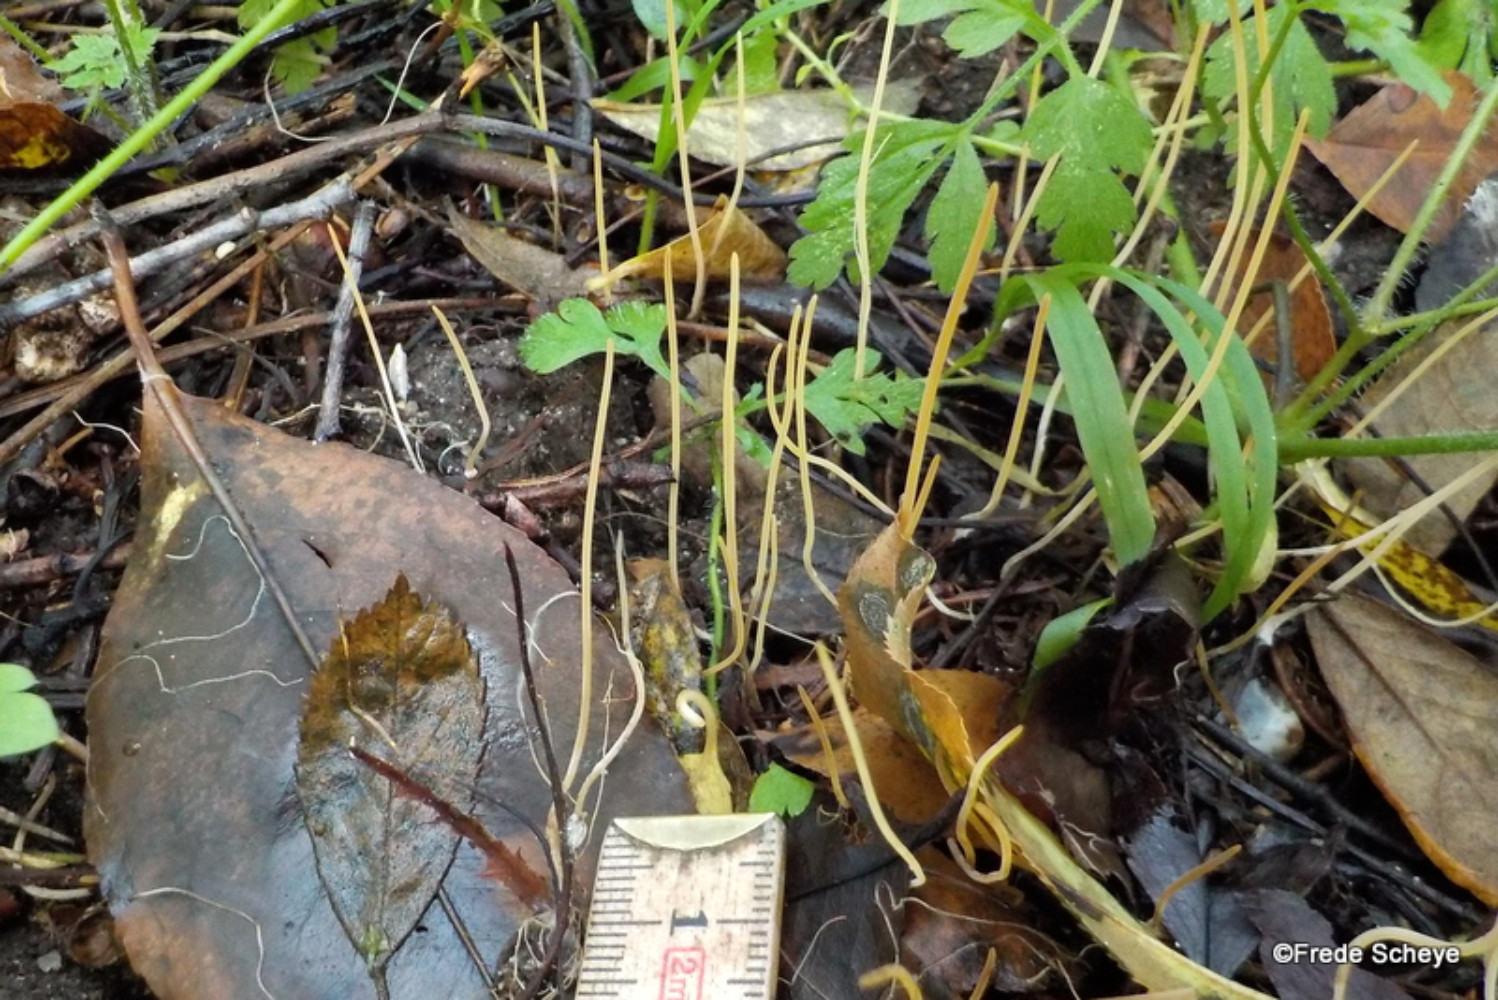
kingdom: Fungi
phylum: Basidiomycota
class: Agaricomycetes
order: Agaricales
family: Typhulaceae
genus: Typhula
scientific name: Typhula juncea
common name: trådagtig rørkølle
